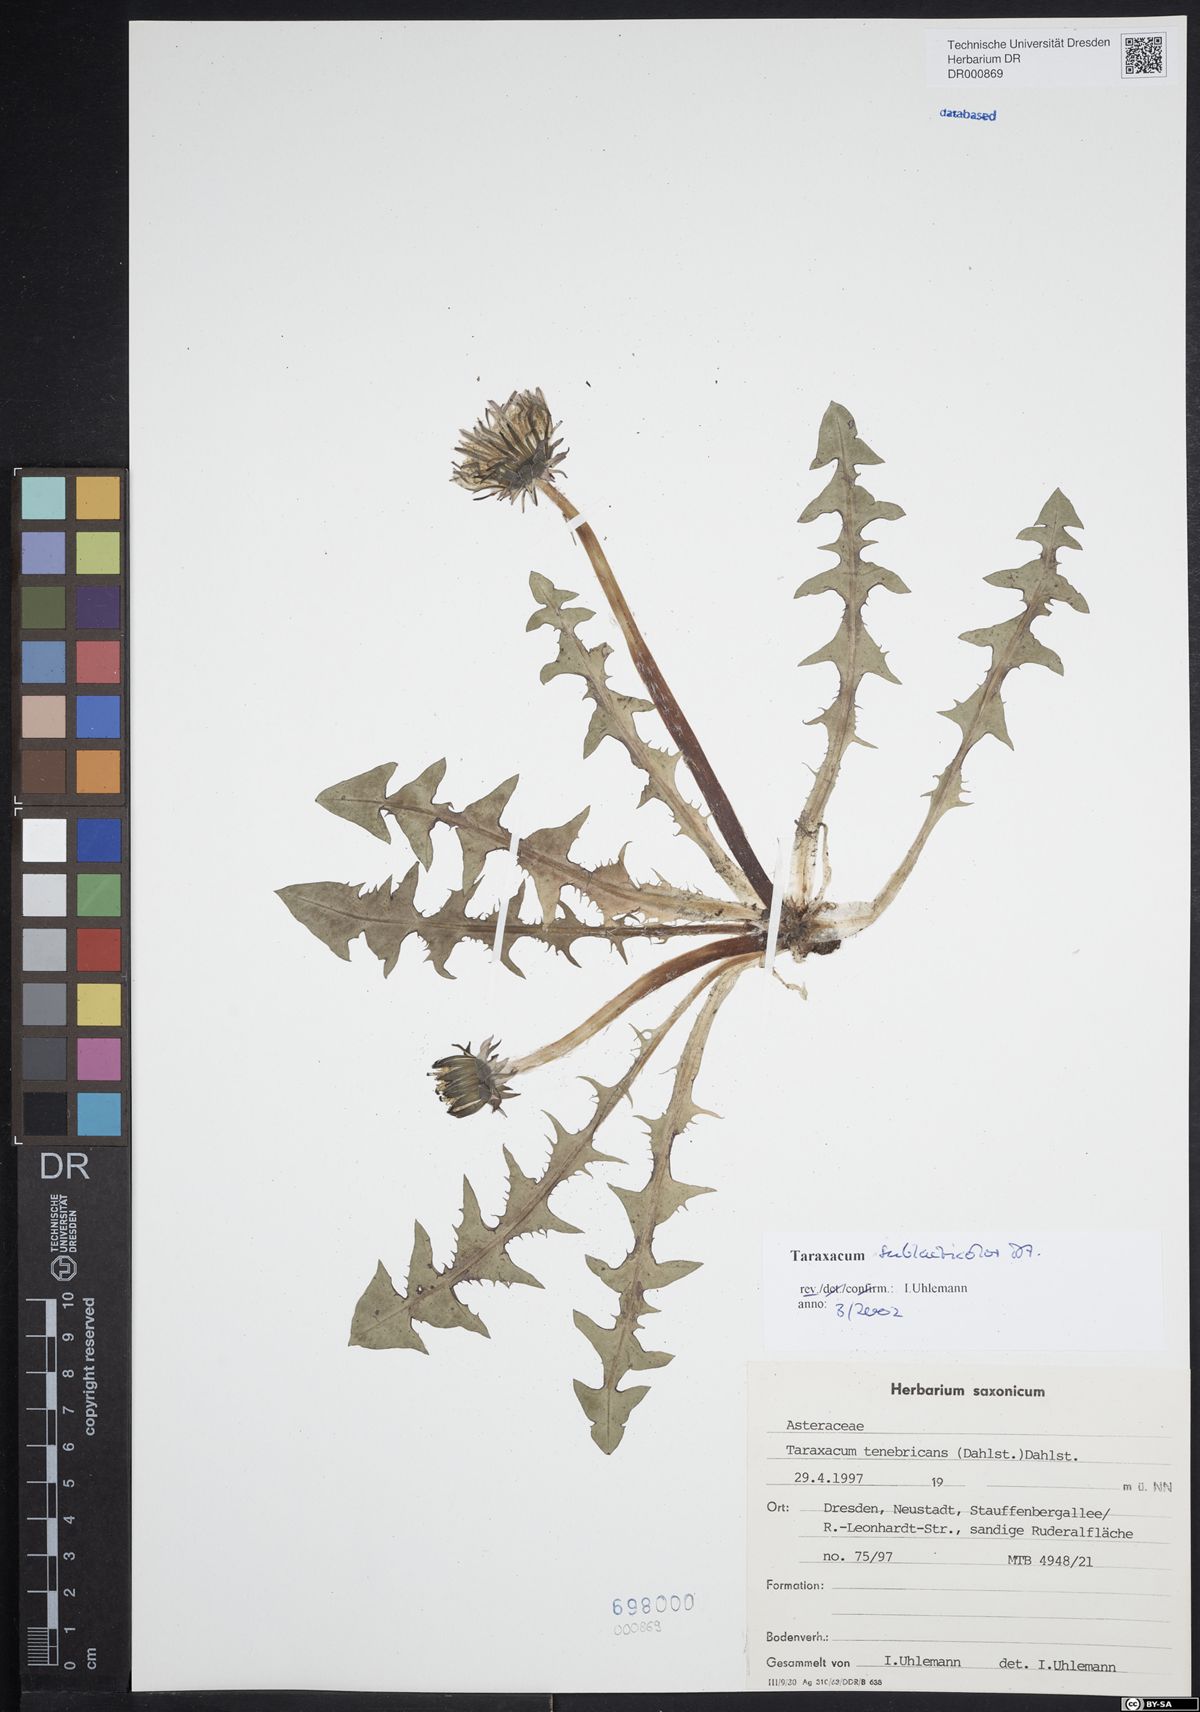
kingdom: Plantae
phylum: Tracheophyta
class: Magnoliopsida
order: Asterales
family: Asteraceae
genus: Taraxacum
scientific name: Taraxacum sublaeticolor
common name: Small-headed dandelion
